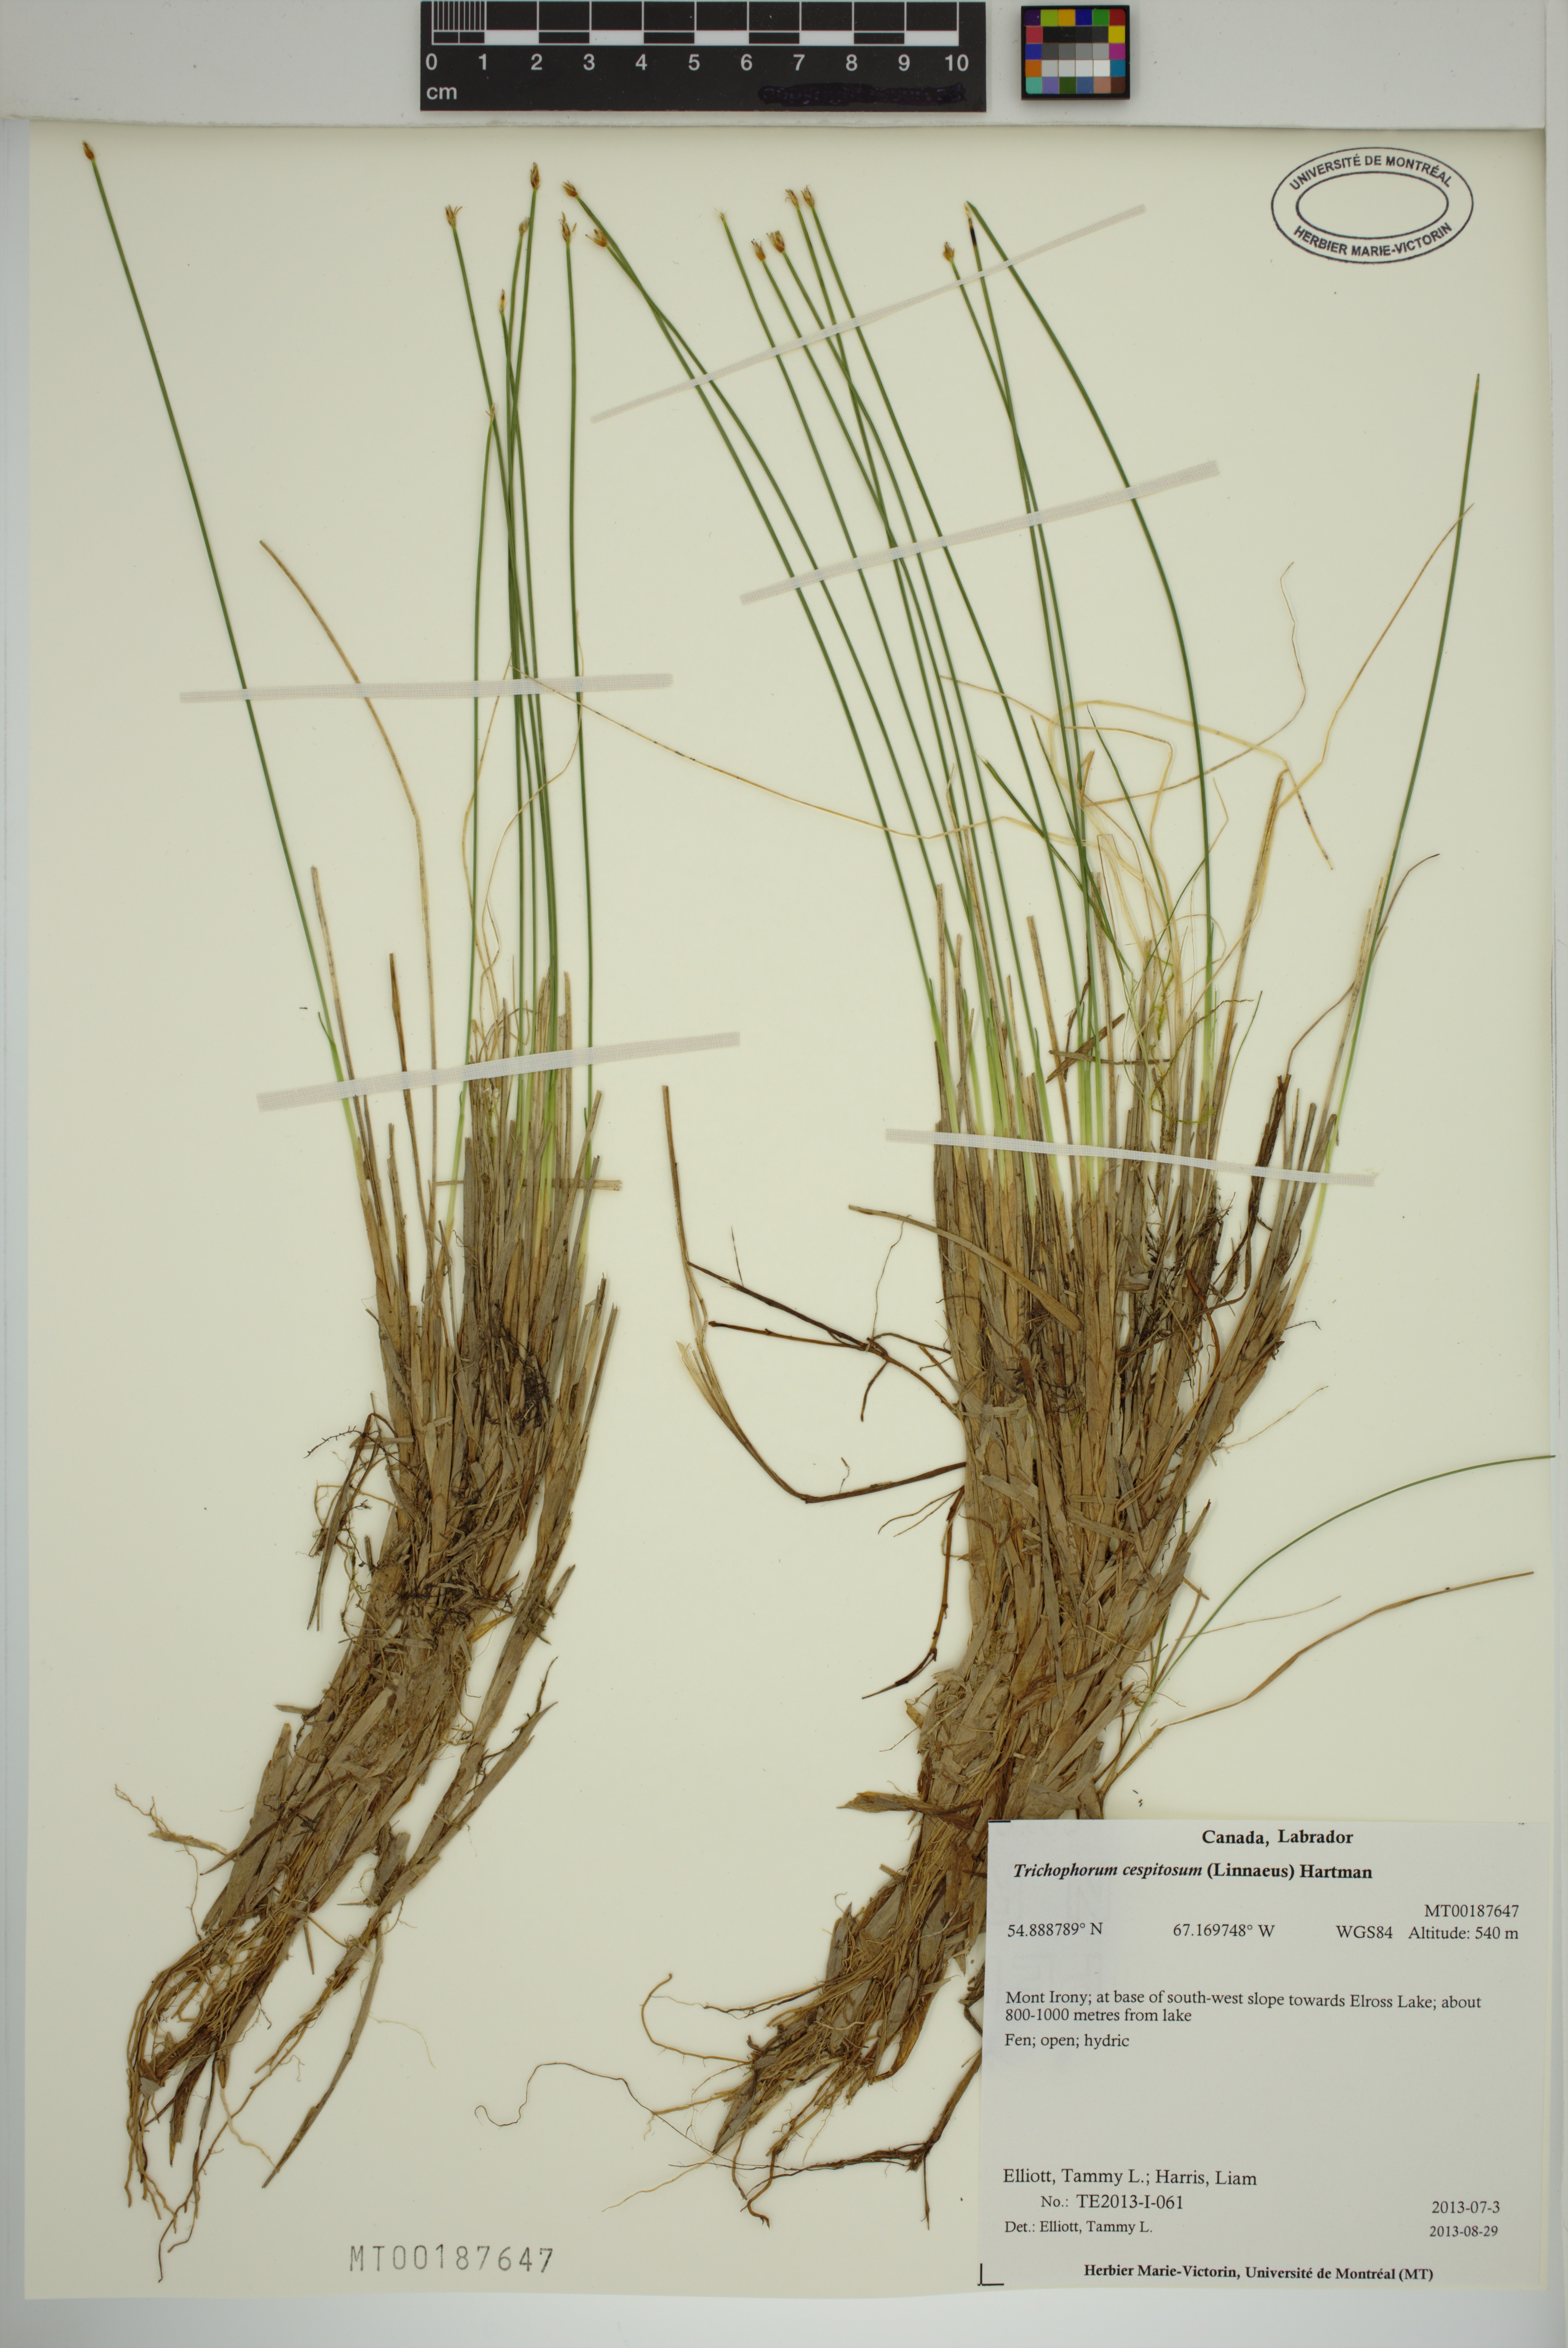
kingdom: Plantae
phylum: Tracheophyta
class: Liliopsida
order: Poales
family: Cyperaceae
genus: Trichophorum
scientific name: Trichophorum cespitosum
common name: Cespitose bulrush
